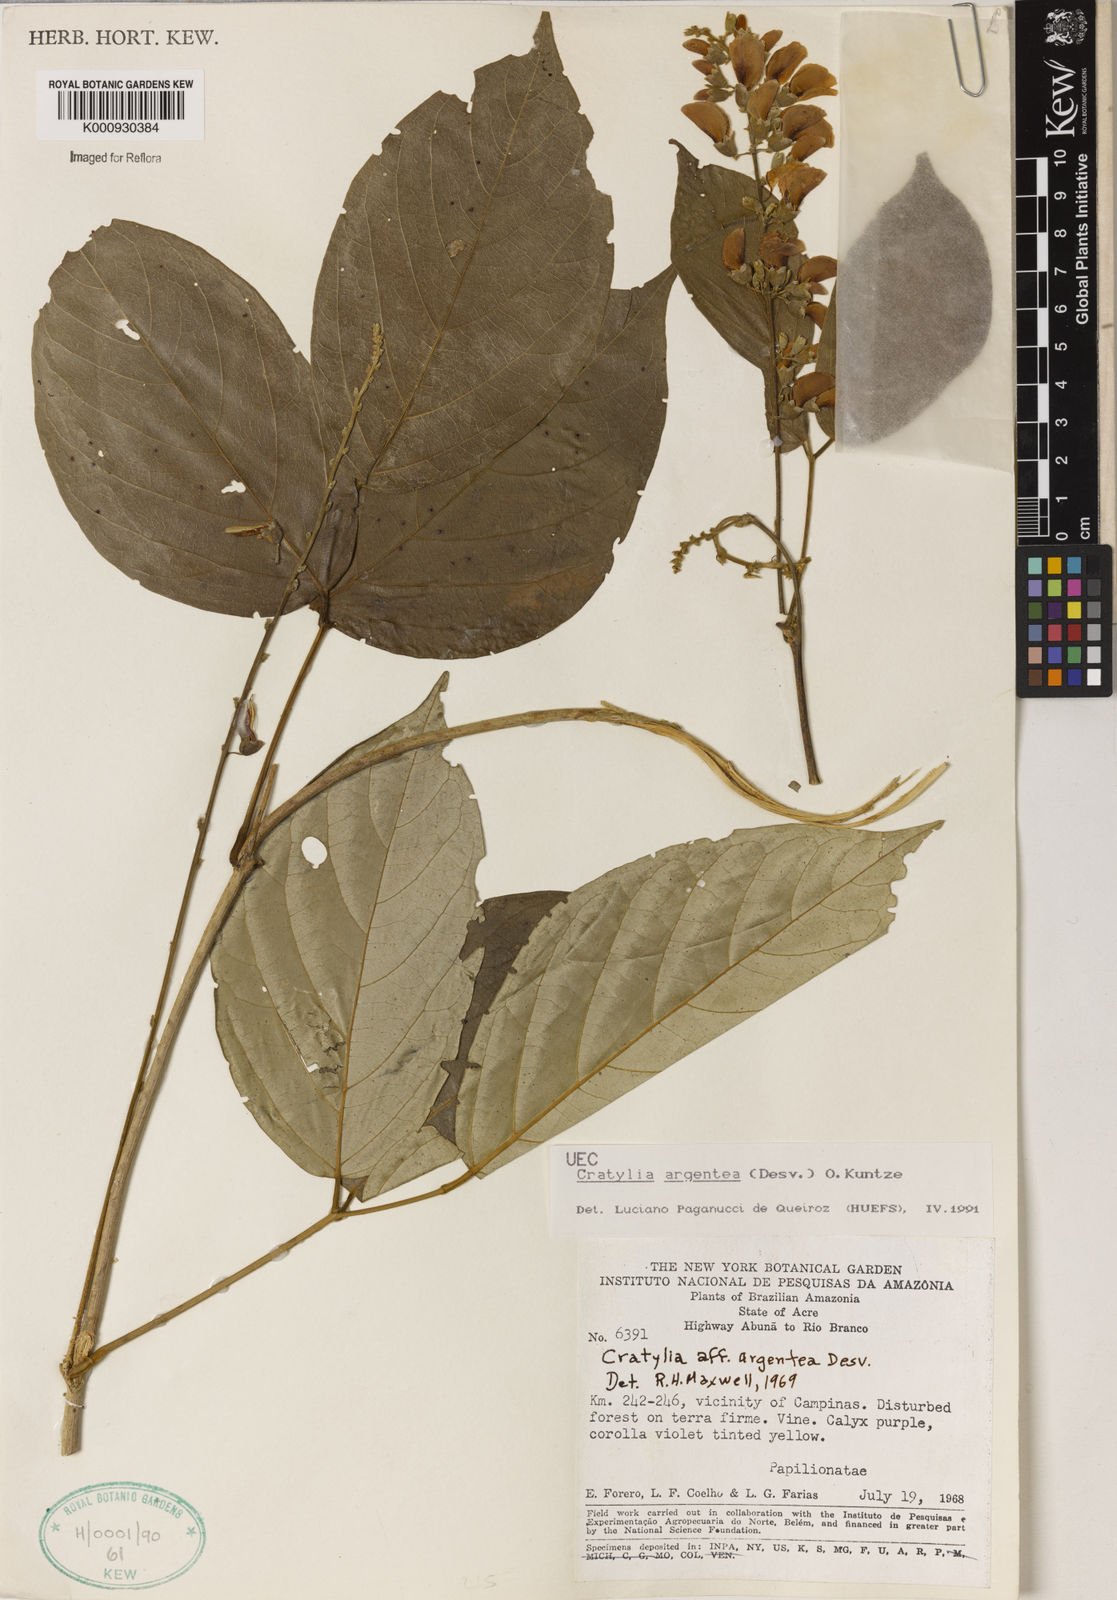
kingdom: Plantae
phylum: Tracheophyta
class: Magnoliopsida
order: Fabales
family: Fabaceae
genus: Cratylia
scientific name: Cratylia argentea
